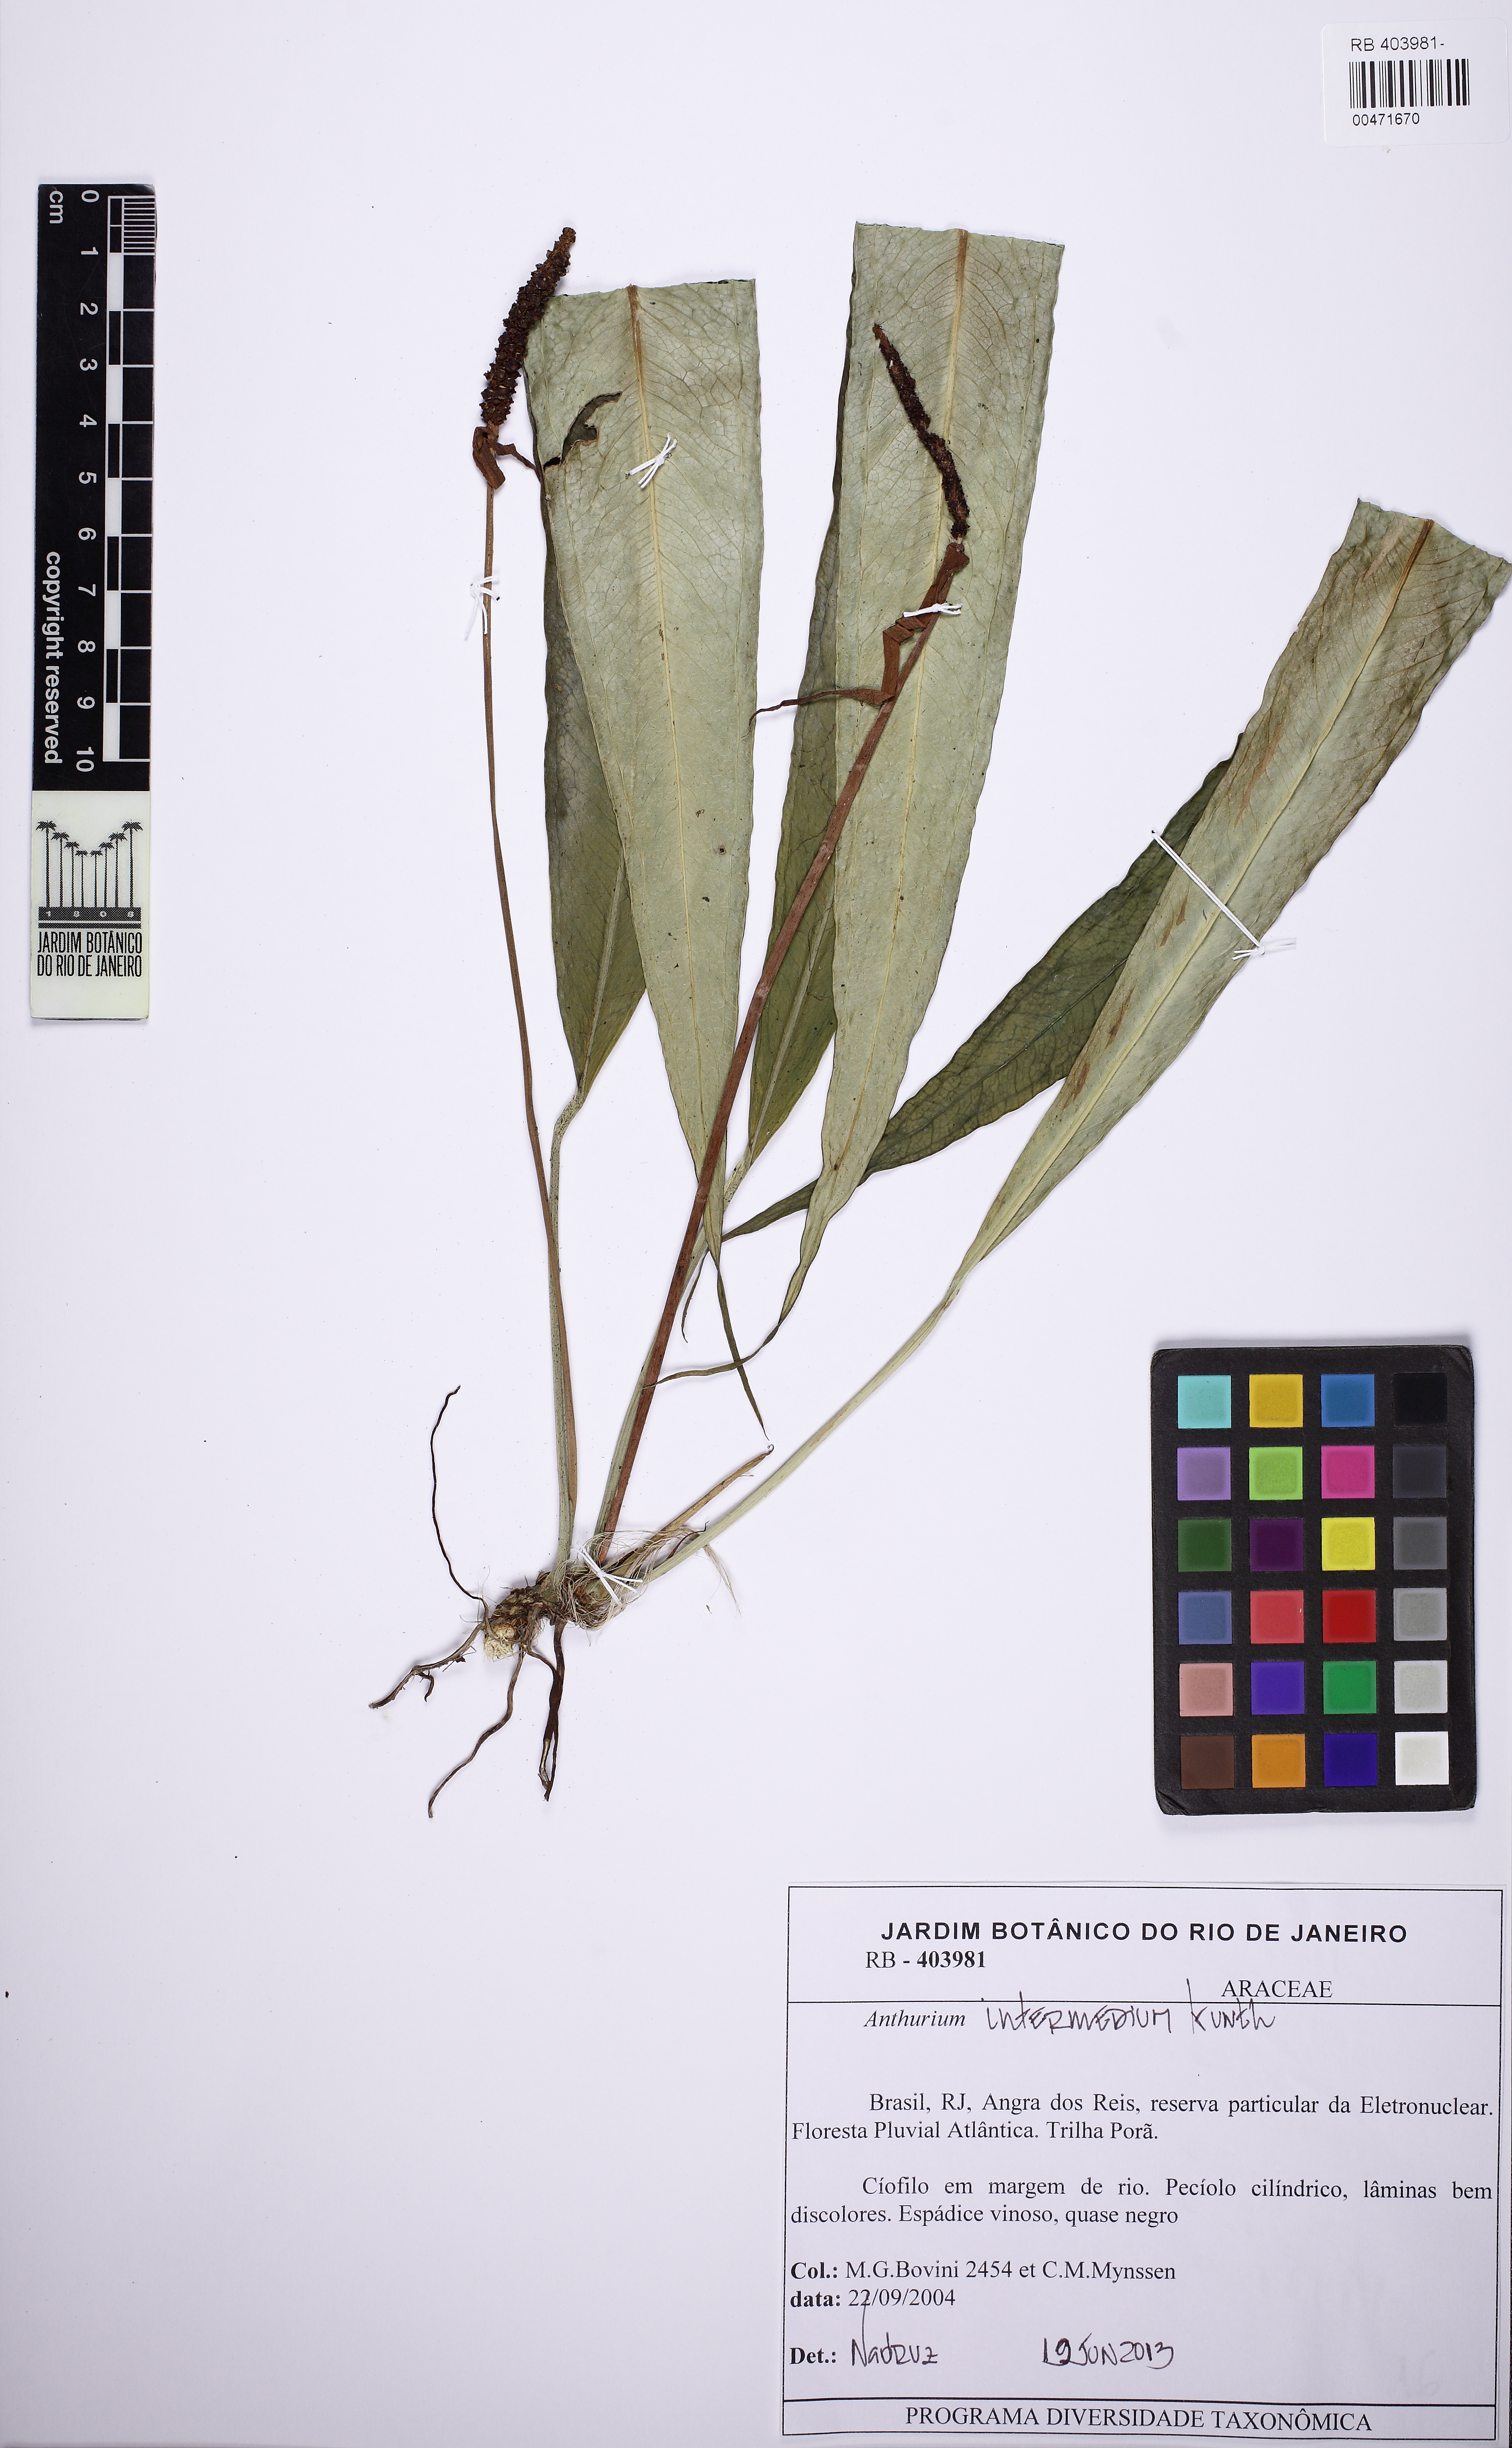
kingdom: Plantae
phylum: Tracheophyta
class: Liliopsida
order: Alismatales
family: Araceae
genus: Anthurium
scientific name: Anthurium intermedium
